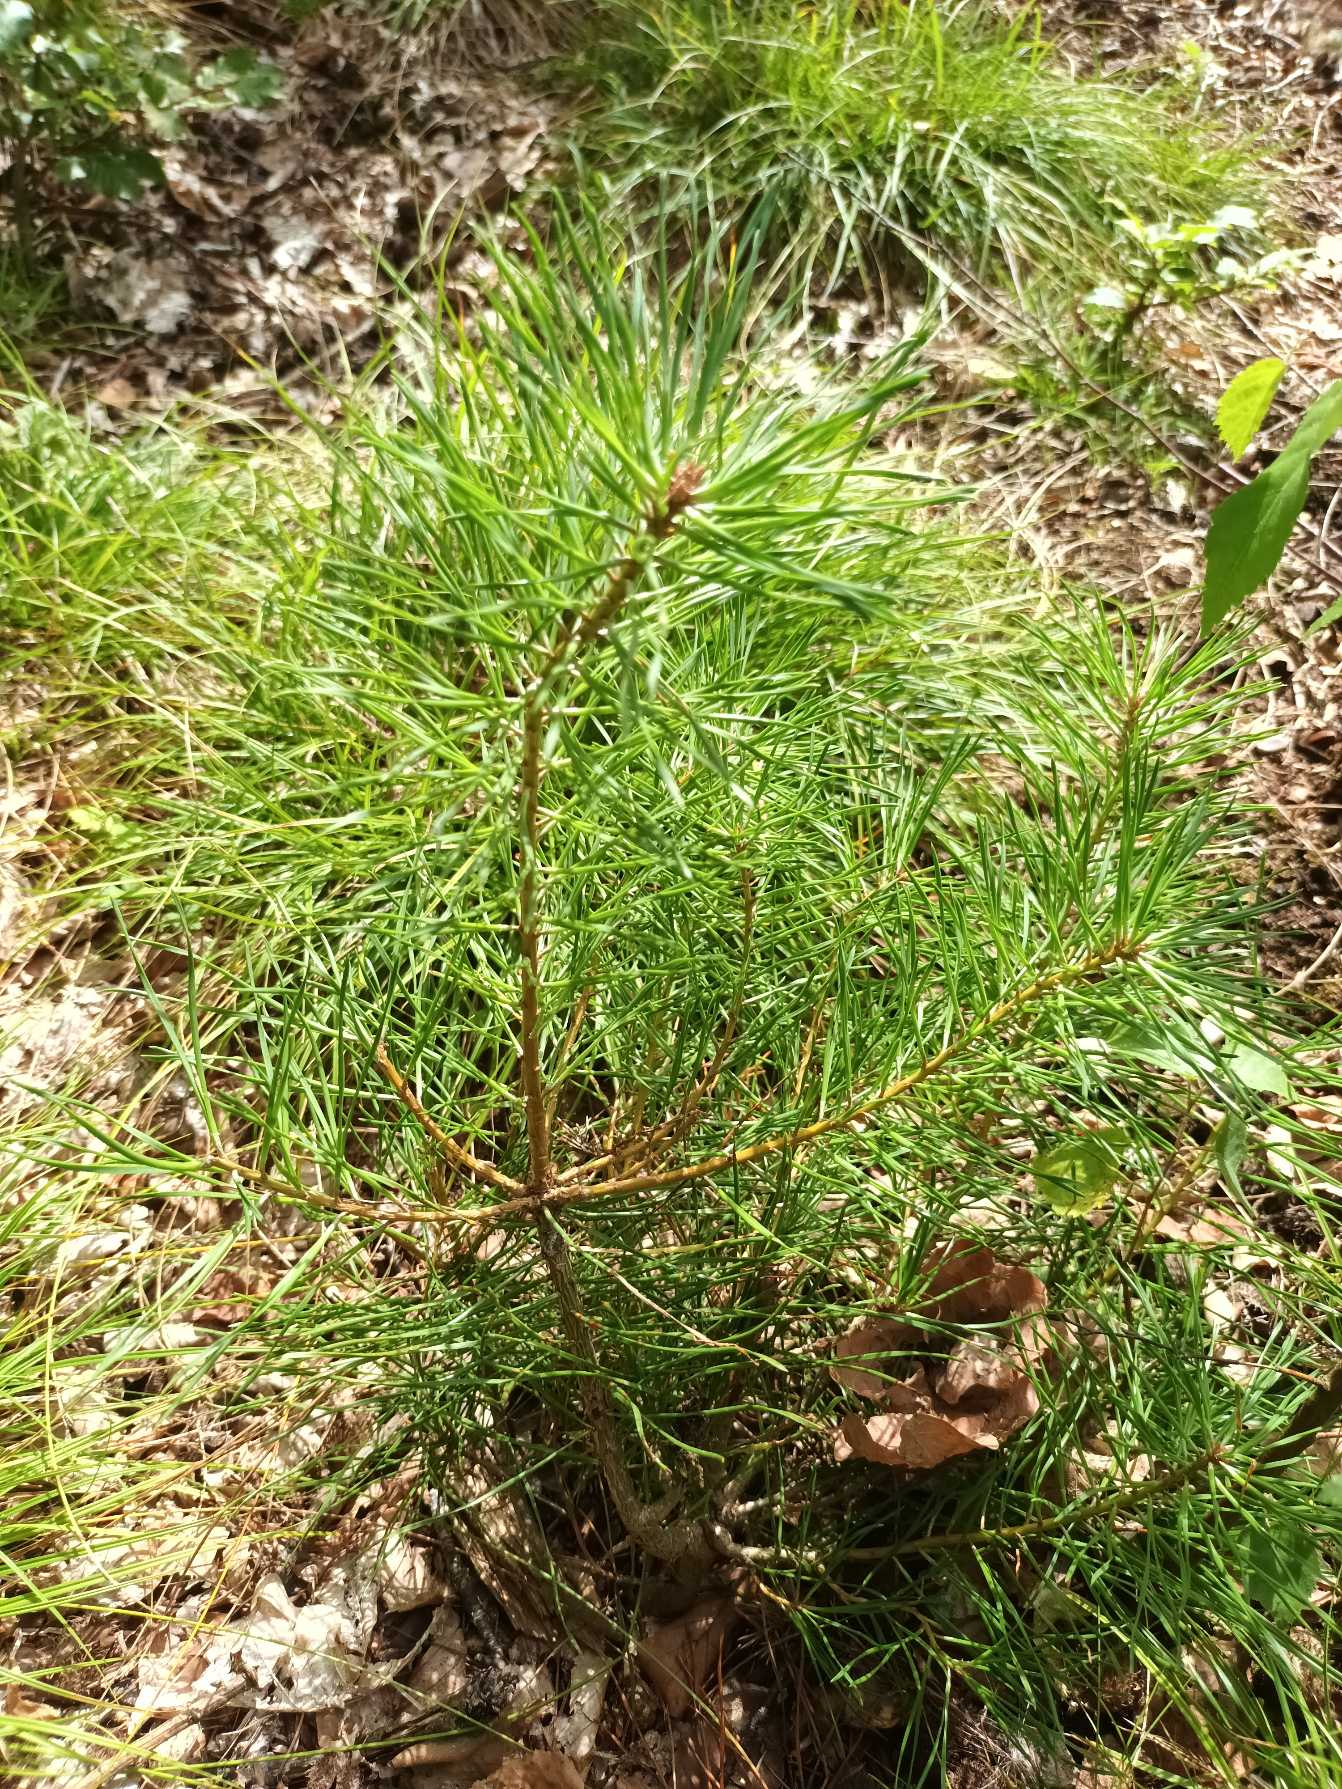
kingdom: Plantae
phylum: Tracheophyta
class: Pinopsida
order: Pinales
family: Pinaceae
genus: Pinus
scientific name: Pinus sylvestris
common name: Skov-fyr
